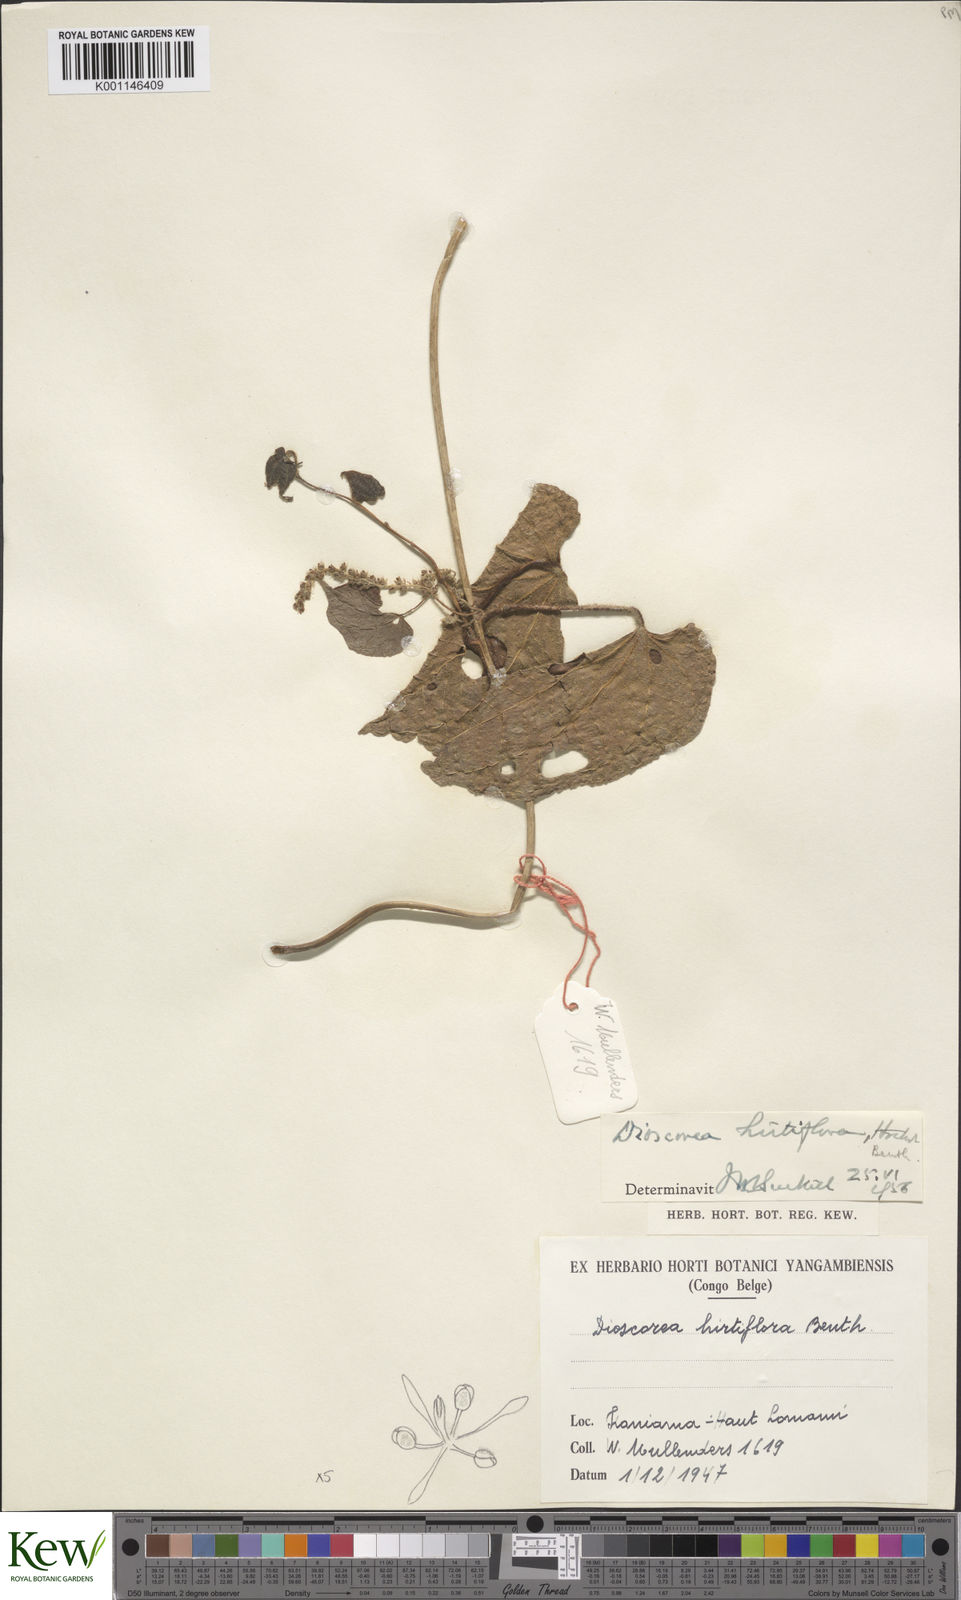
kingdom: Plantae
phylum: Tracheophyta
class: Liliopsida
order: Dioscoreales
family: Dioscoreaceae
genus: Dioscorea
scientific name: Dioscorea hirtiflora
